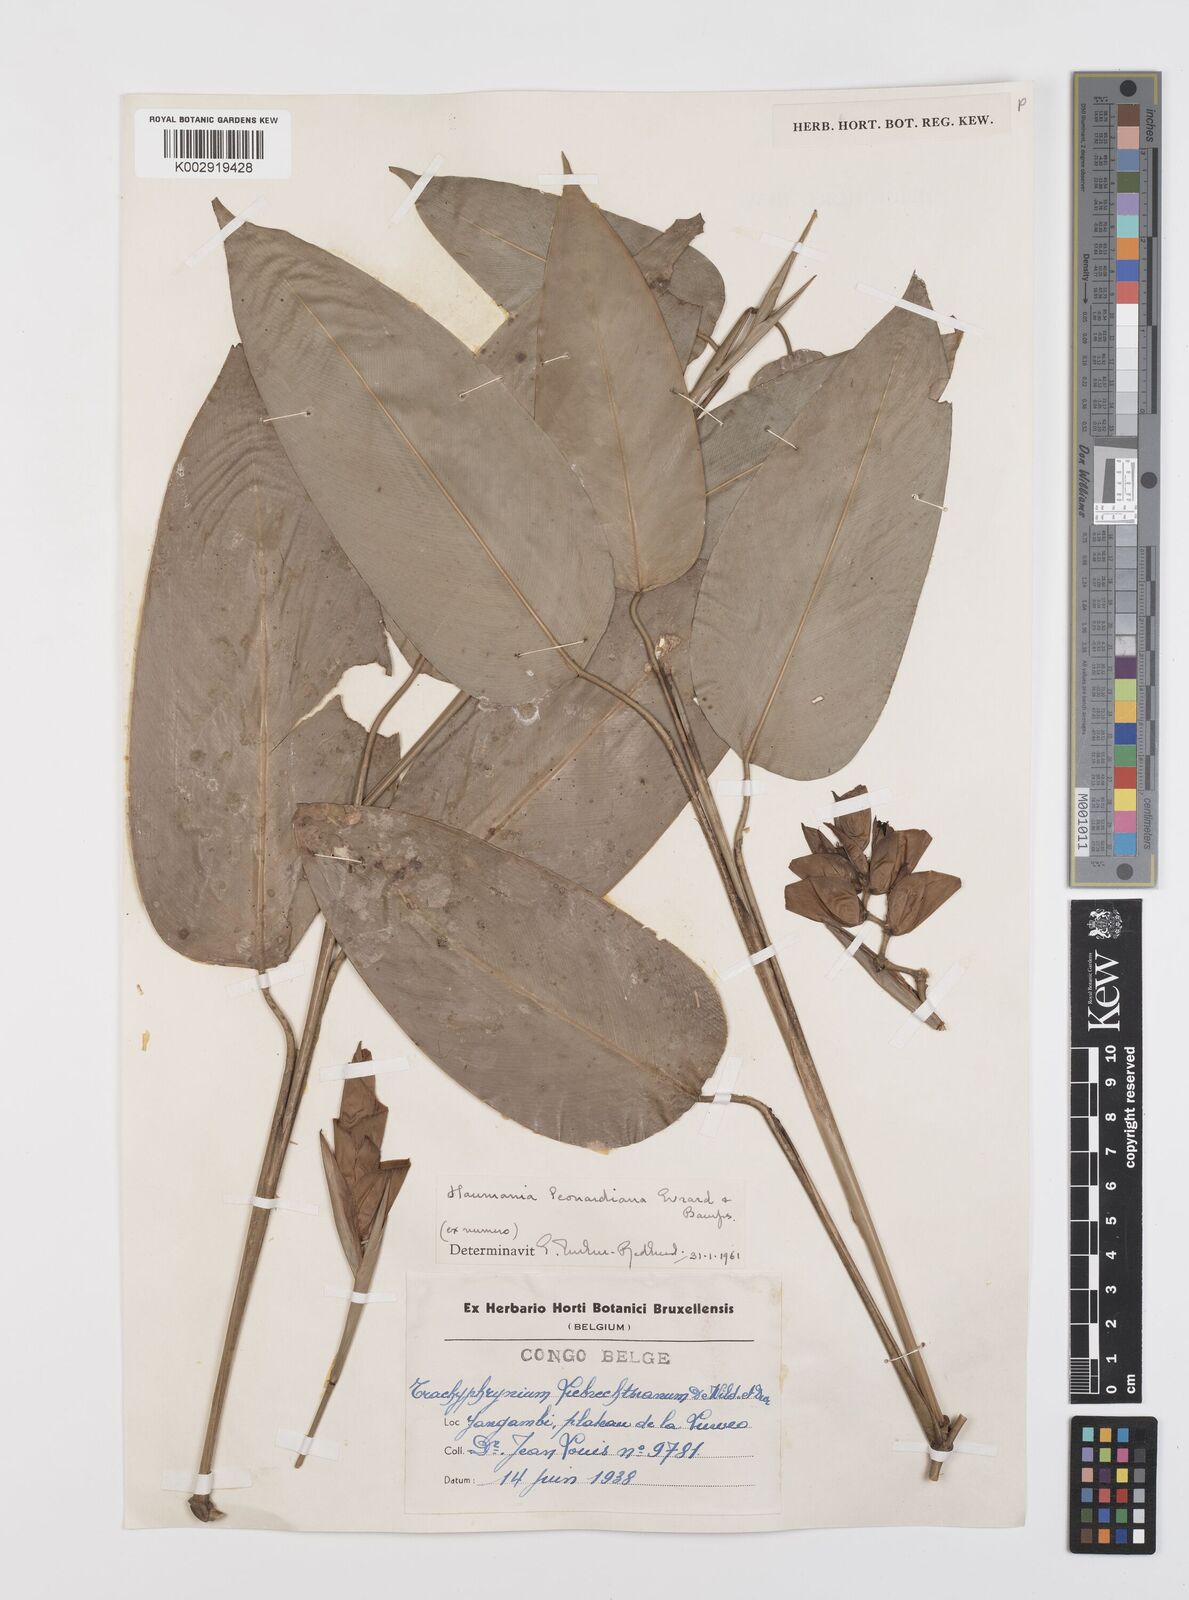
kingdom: Plantae
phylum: Tracheophyta
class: Liliopsida
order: Zingiberales
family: Marantaceae
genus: Haumania
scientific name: Haumania leonardiana
